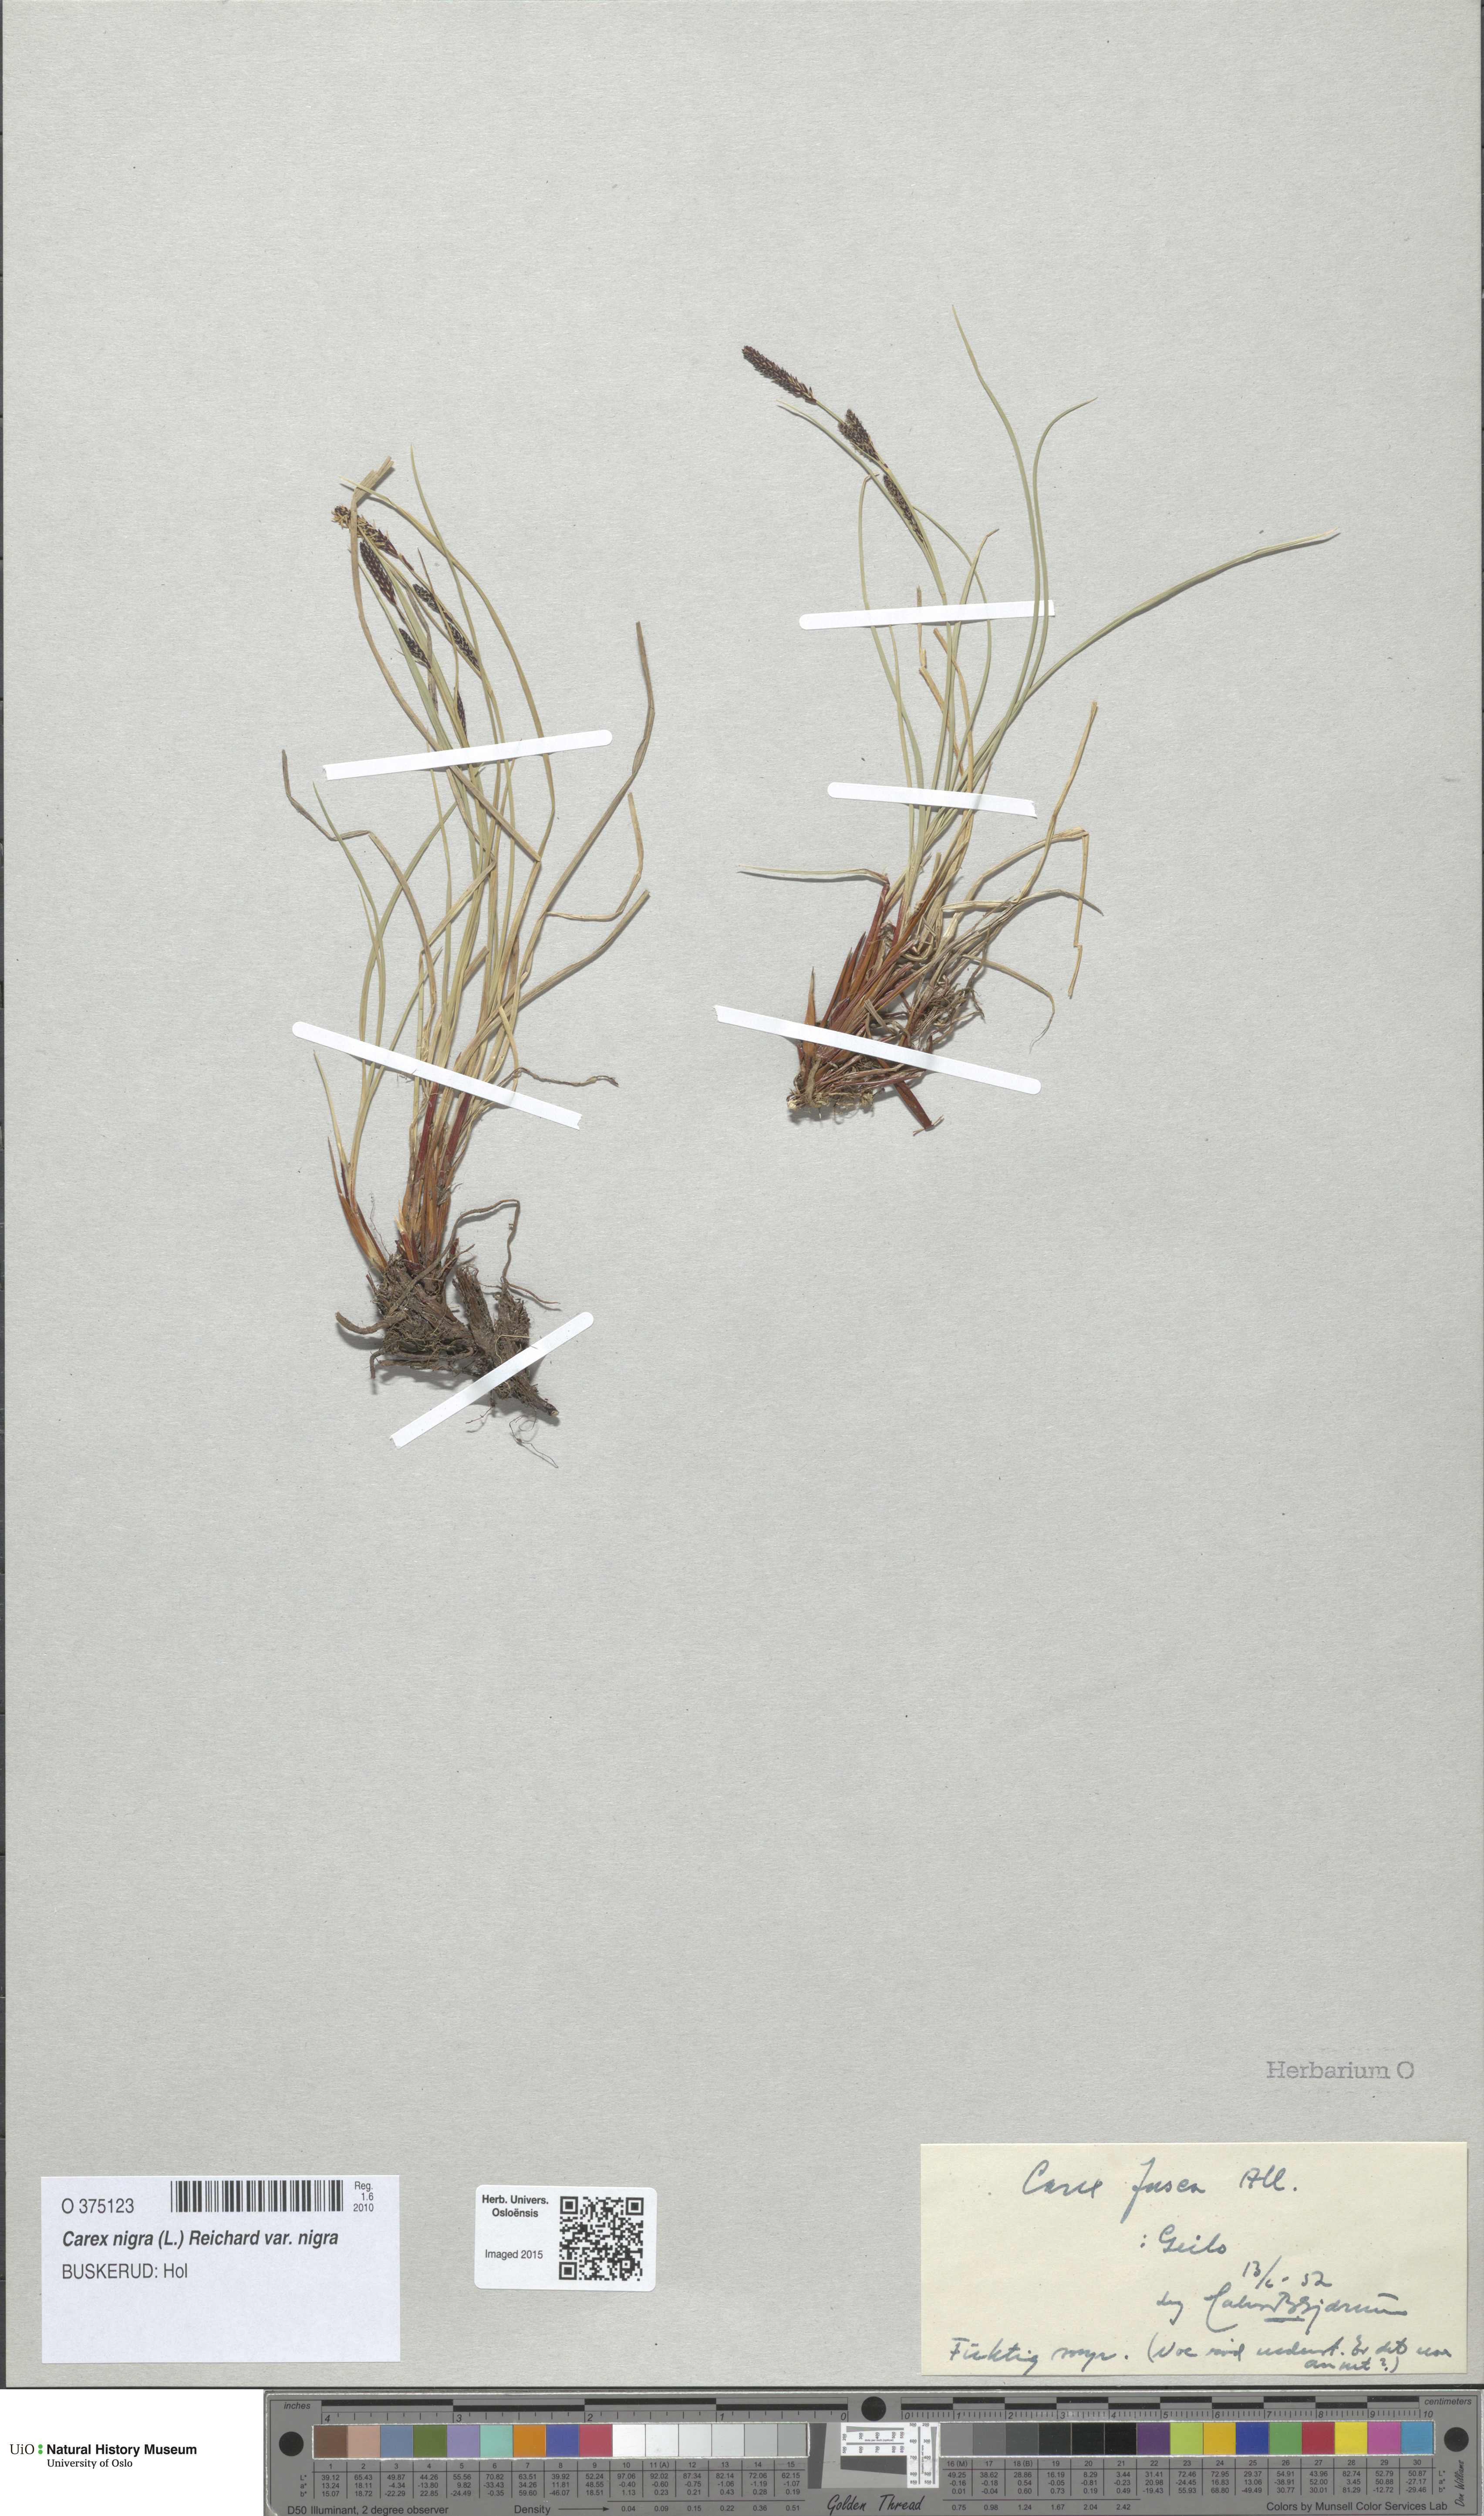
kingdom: Plantae
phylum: Tracheophyta
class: Liliopsida
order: Poales
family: Cyperaceae
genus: Carex
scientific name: Carex nigra
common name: Common sedge
